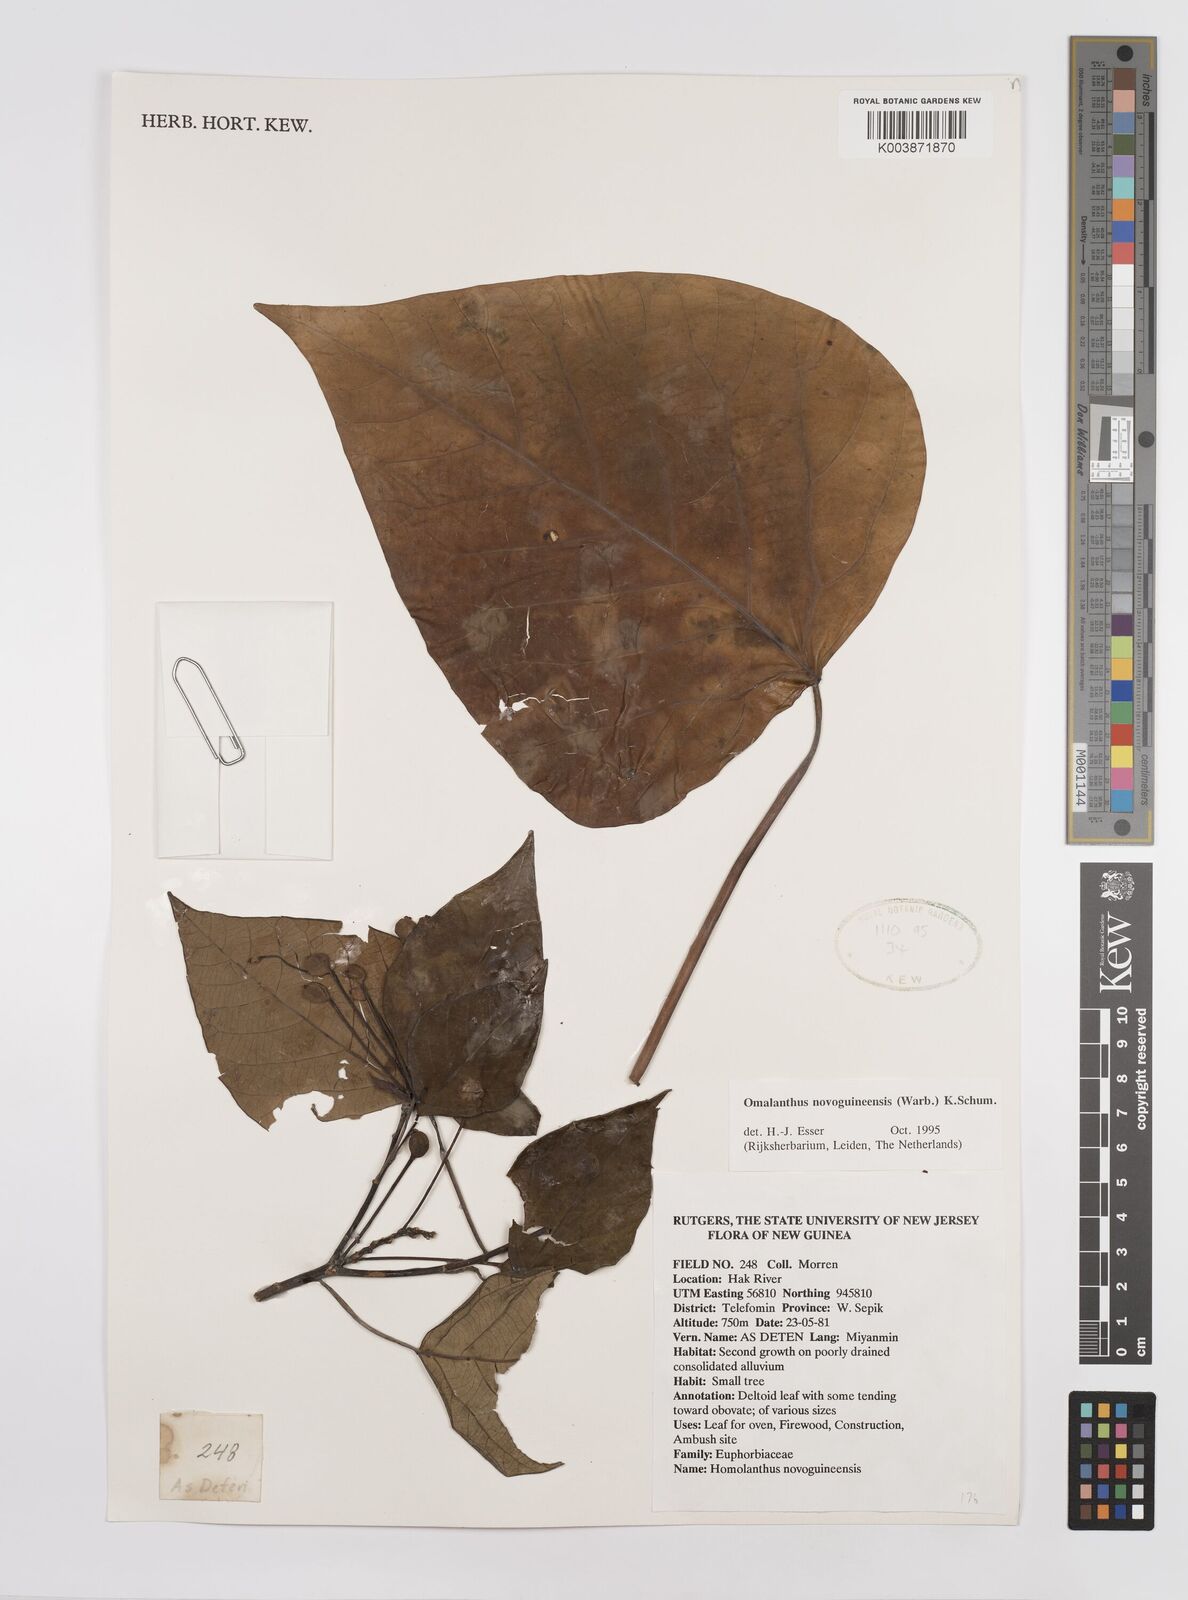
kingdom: Plantae
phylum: Tracheophyta
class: Magnoliopsida
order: Malpighiales
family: Euphorbiaceae
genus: Homalanthus
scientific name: Homalanthus novoguineensis
